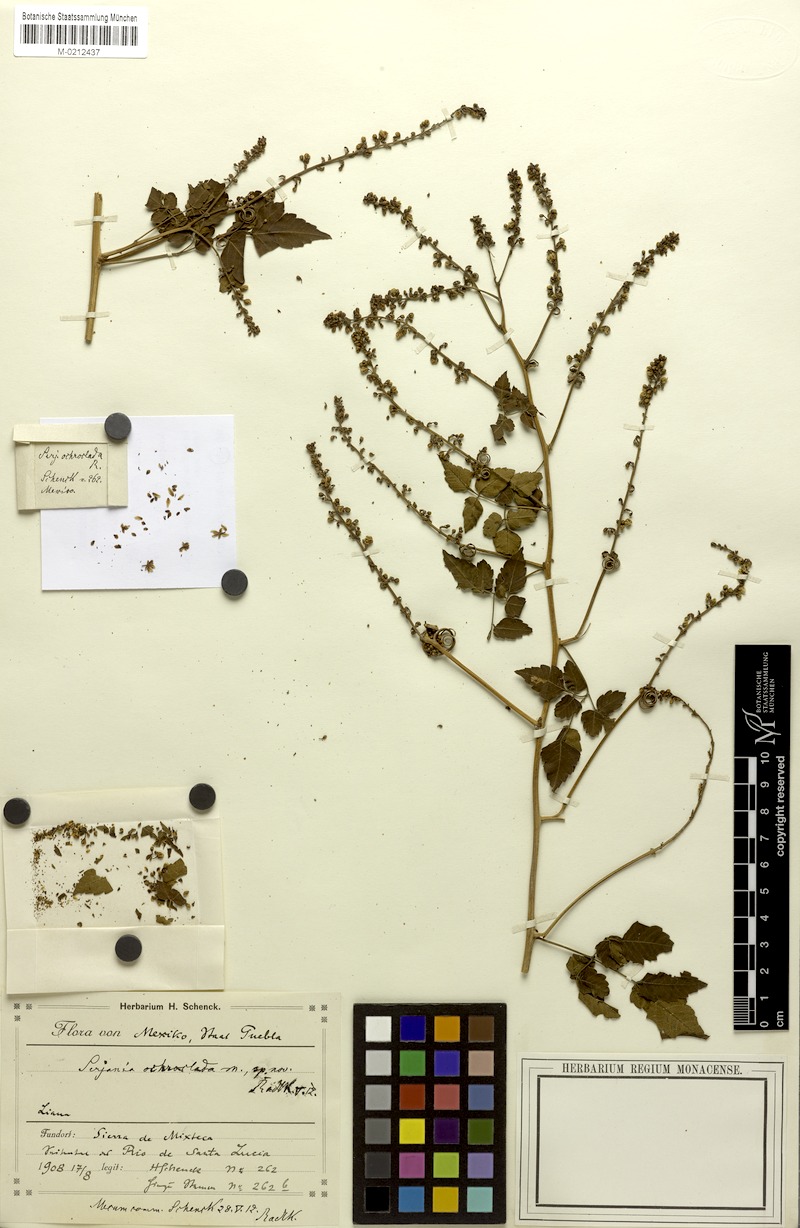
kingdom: Plantae
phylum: Tracheophyta
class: Magnoliopsida
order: Sapindales
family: Sapindaceae
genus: Serjania
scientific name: Serjania ochroclada
